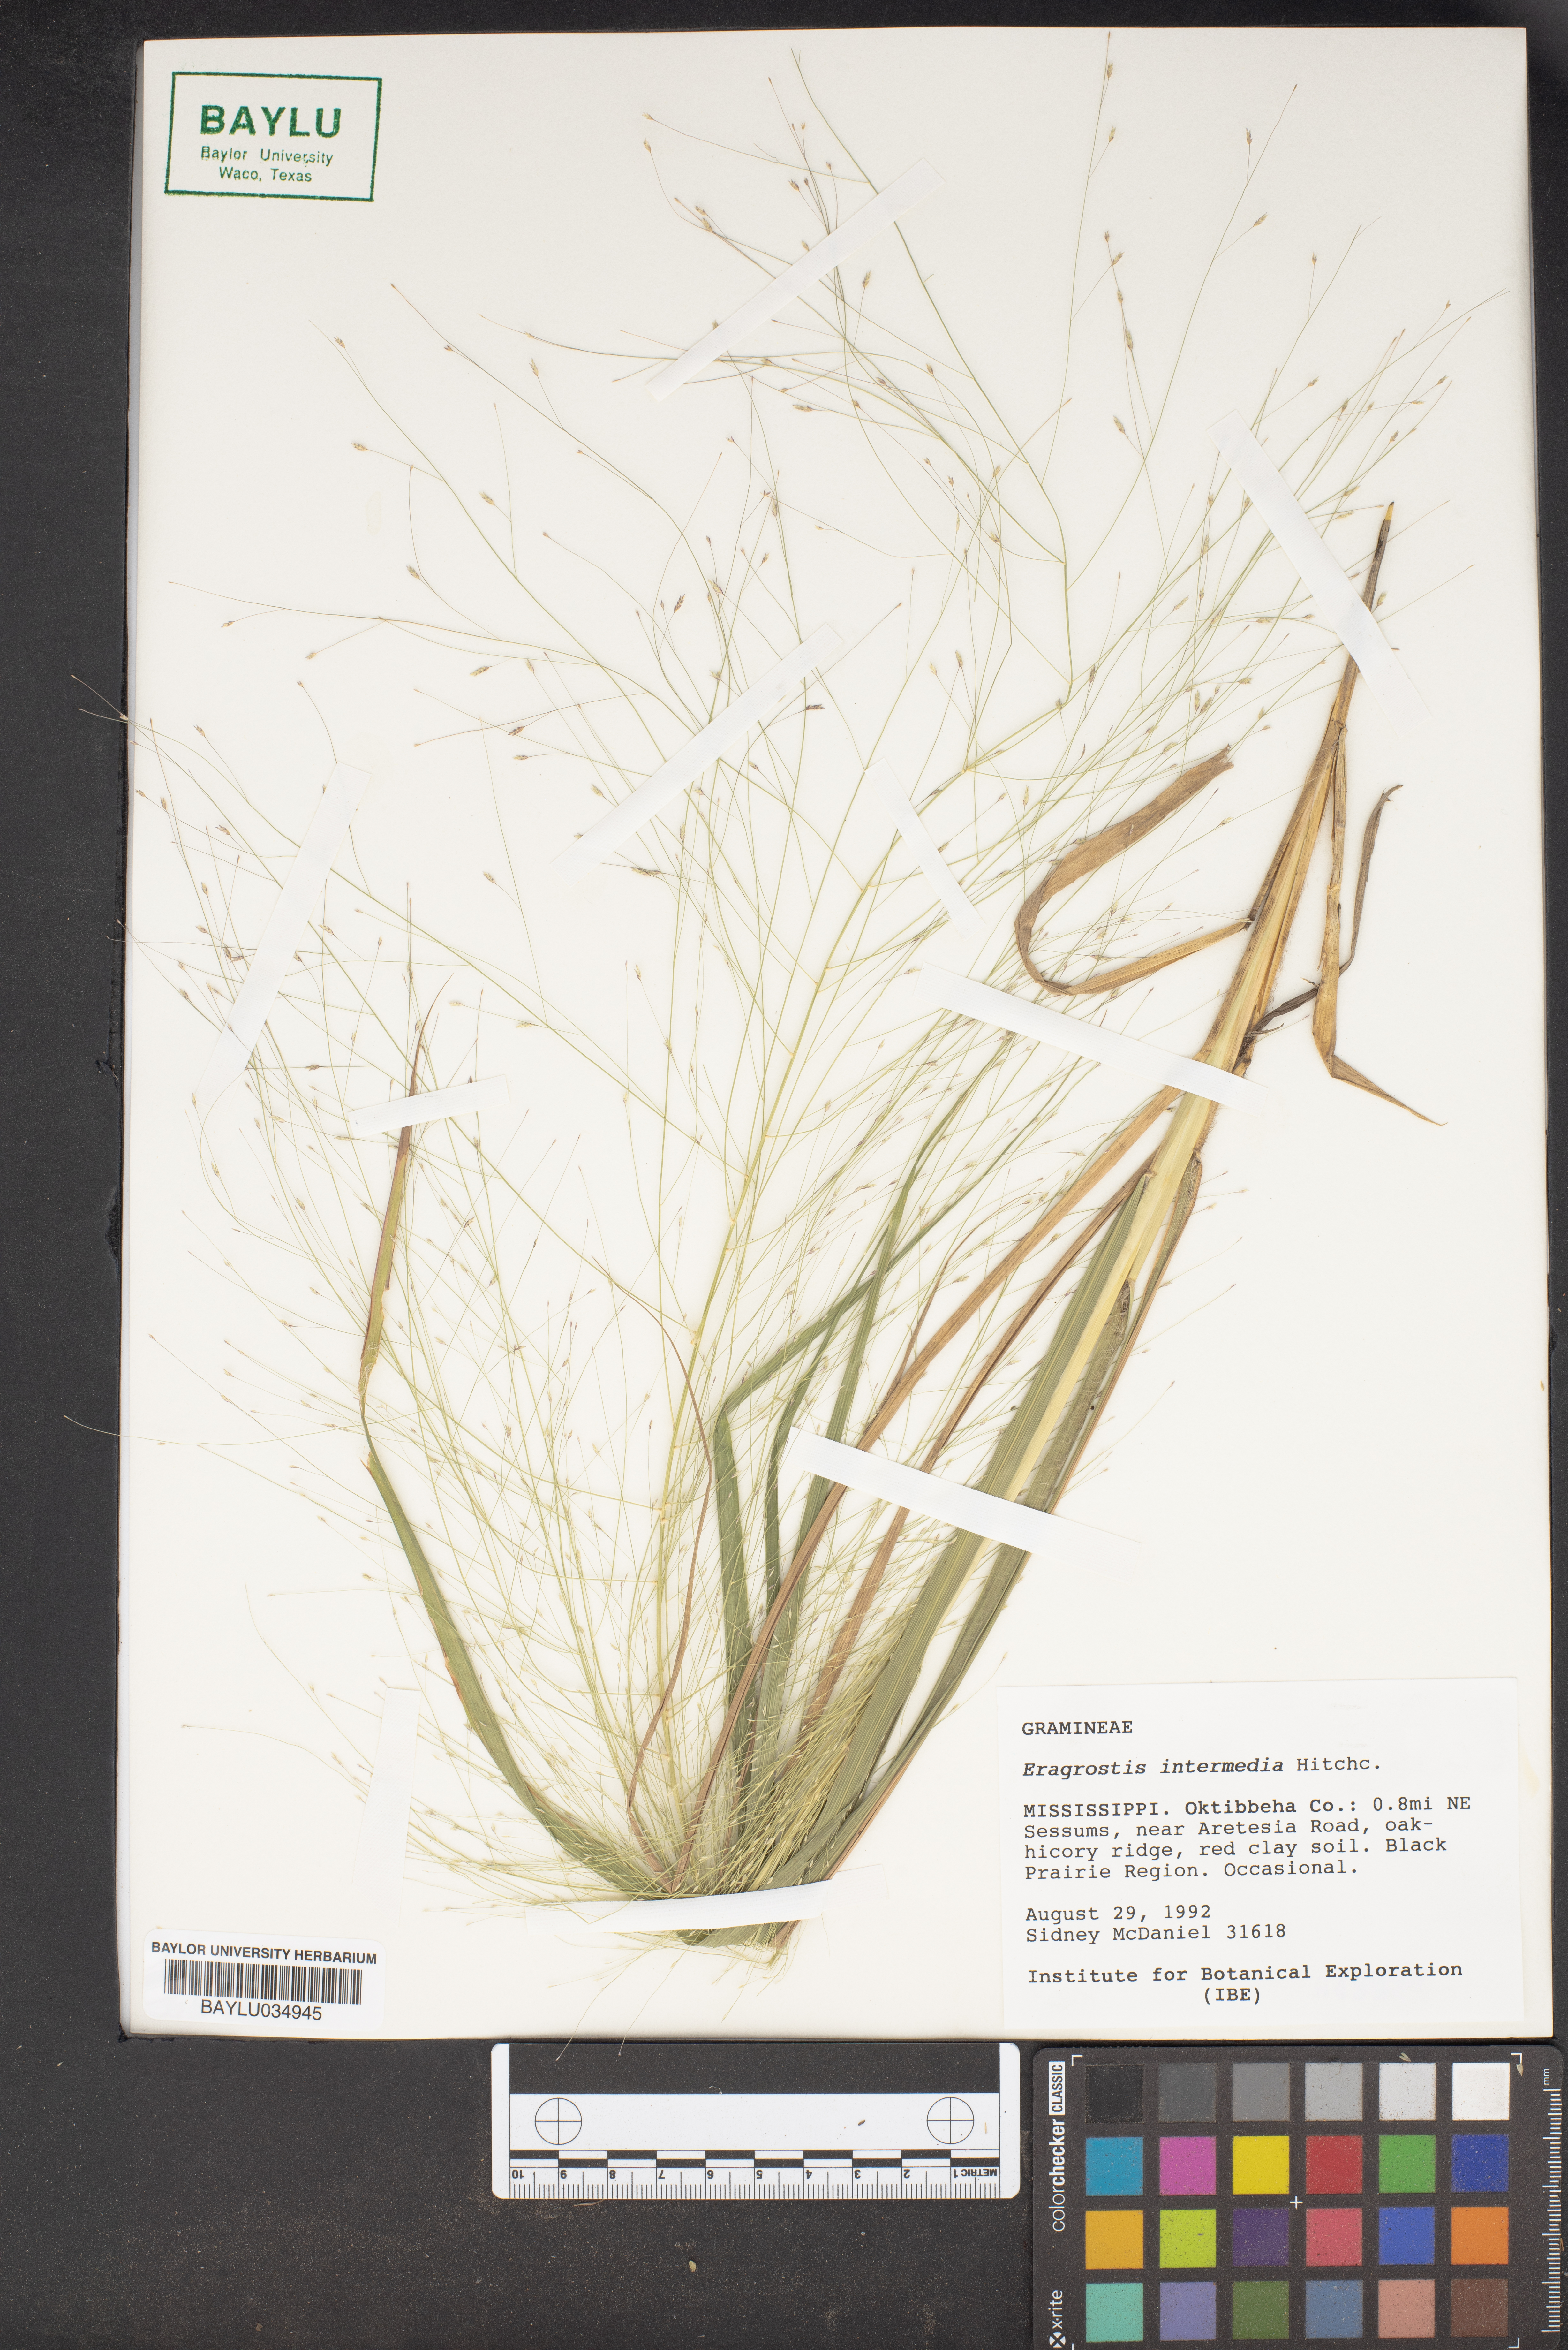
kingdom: Plantae
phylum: Tracheophyta
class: Liliopsida
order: Poales
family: Poaceae
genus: Eragrostis
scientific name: Eragrostis intermedia
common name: Plains love grass
